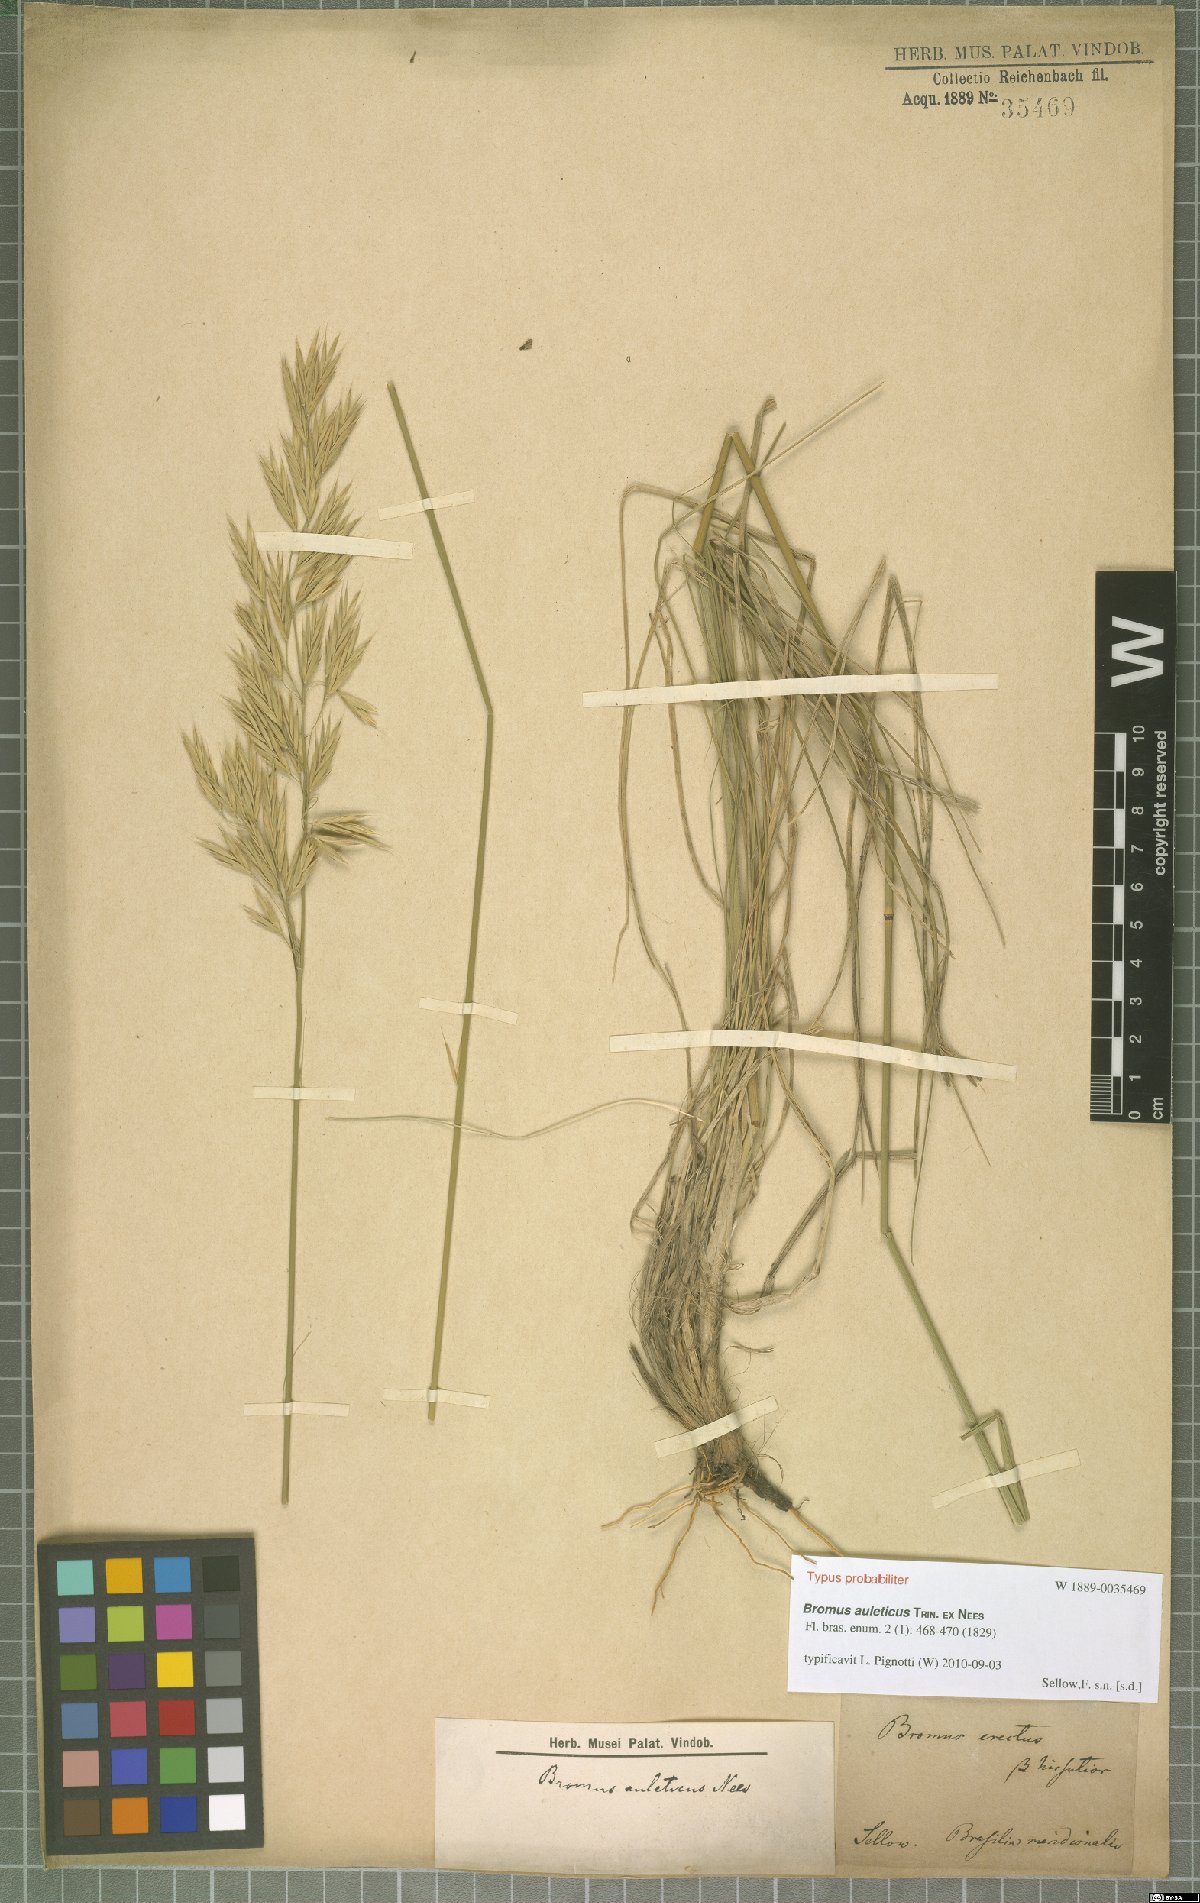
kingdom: Plantae
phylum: Tracheophyta
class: Liliopsida
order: Poales
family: Poaceae
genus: Bromus
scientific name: Bromus auleticus
